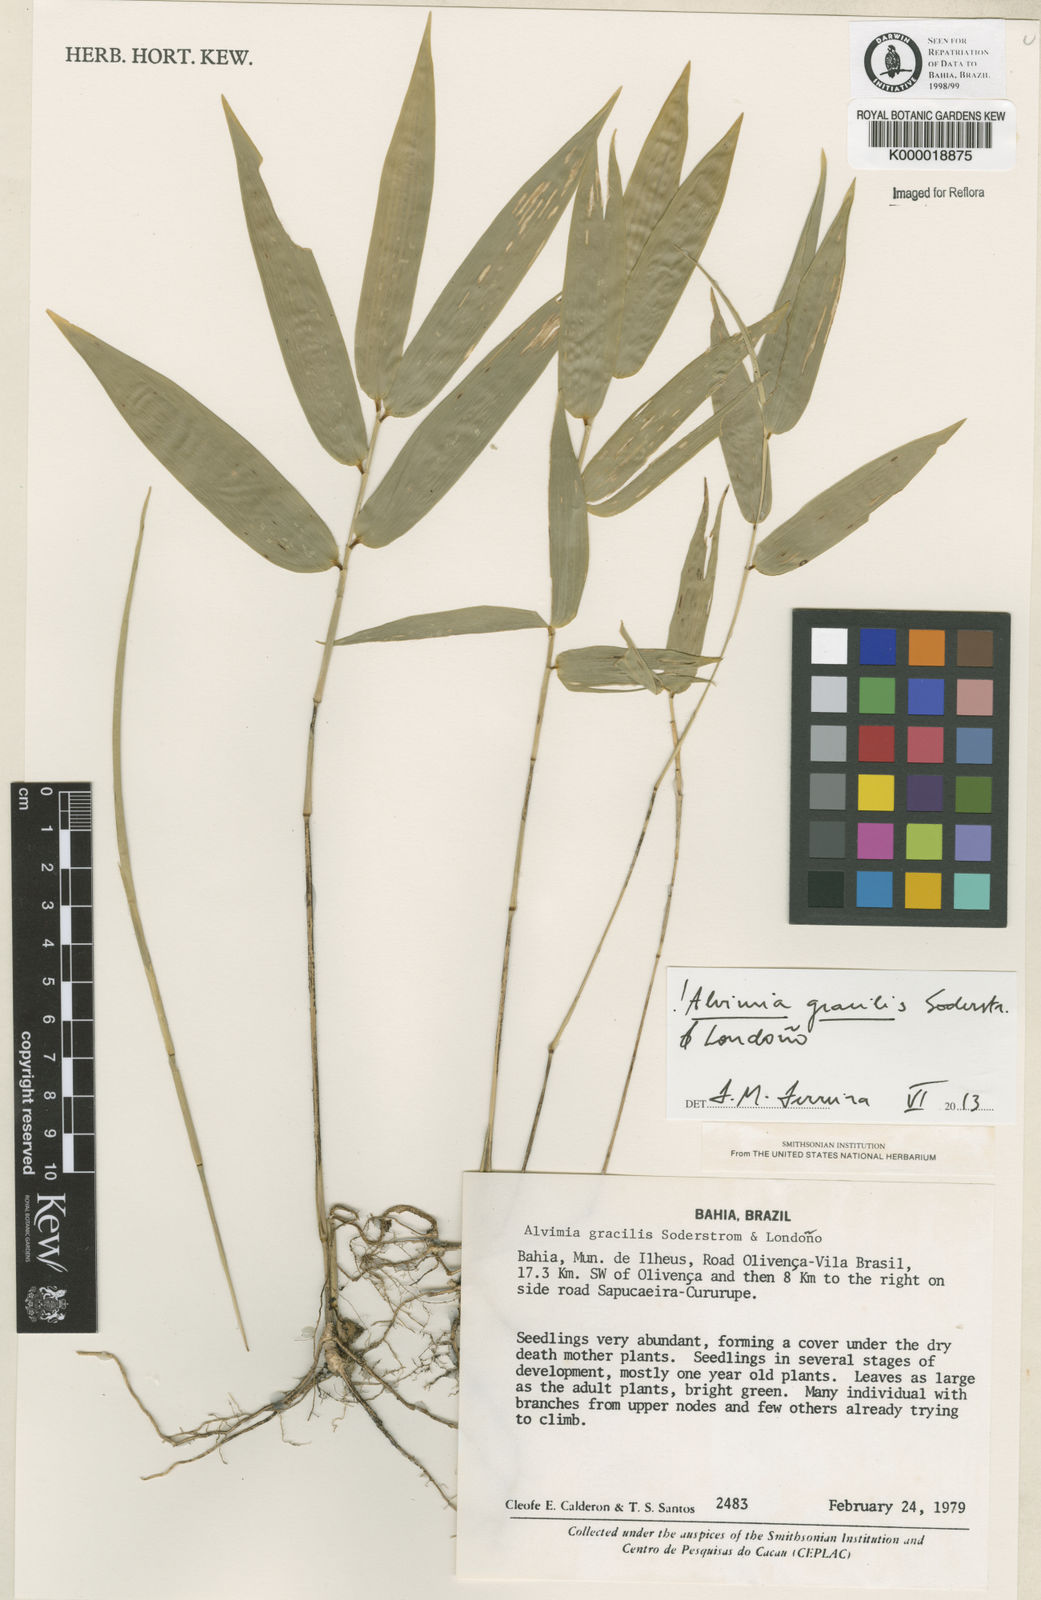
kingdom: Plantae
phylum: Tracheophyta
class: Liliopsida
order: Poales
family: Poaceae
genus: Alvimia
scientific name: Alvimia
